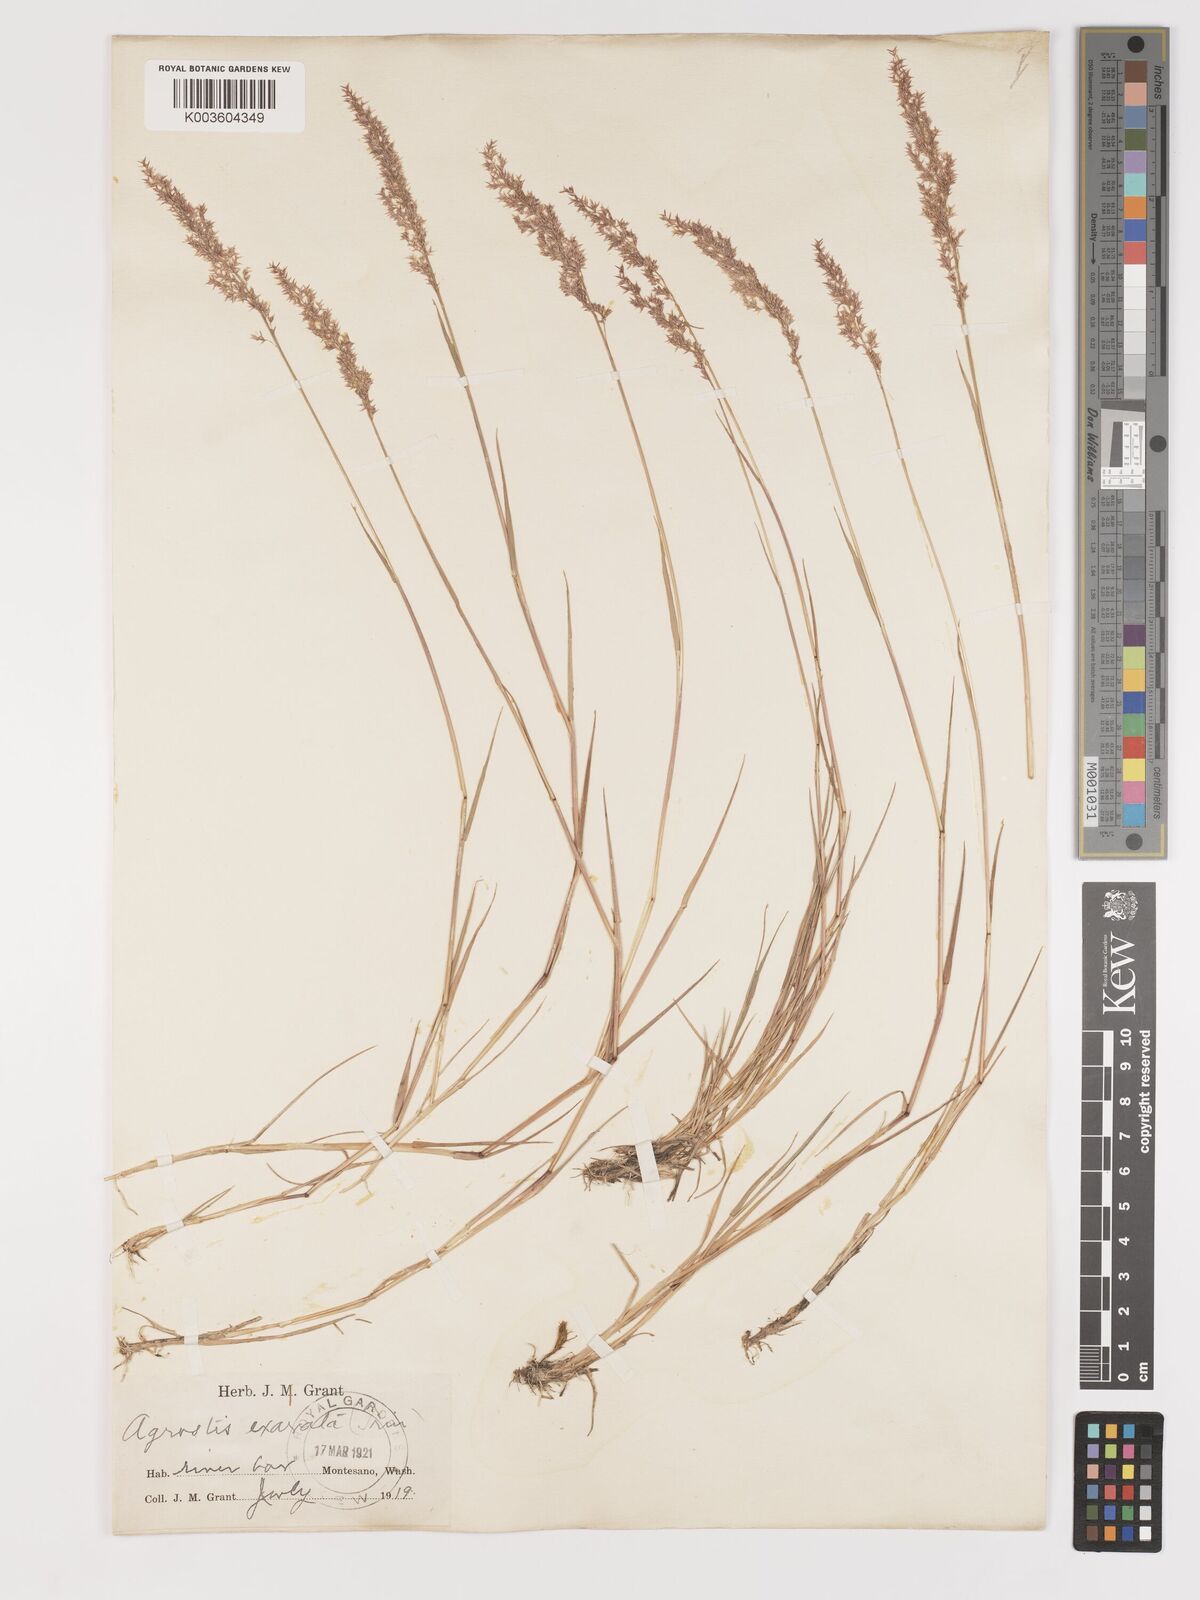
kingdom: Plantae
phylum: Tracheophyta
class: Liliopsida
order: Poales
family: Poaceae
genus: Agrostis
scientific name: Agrostis exarata
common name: Spike bent
